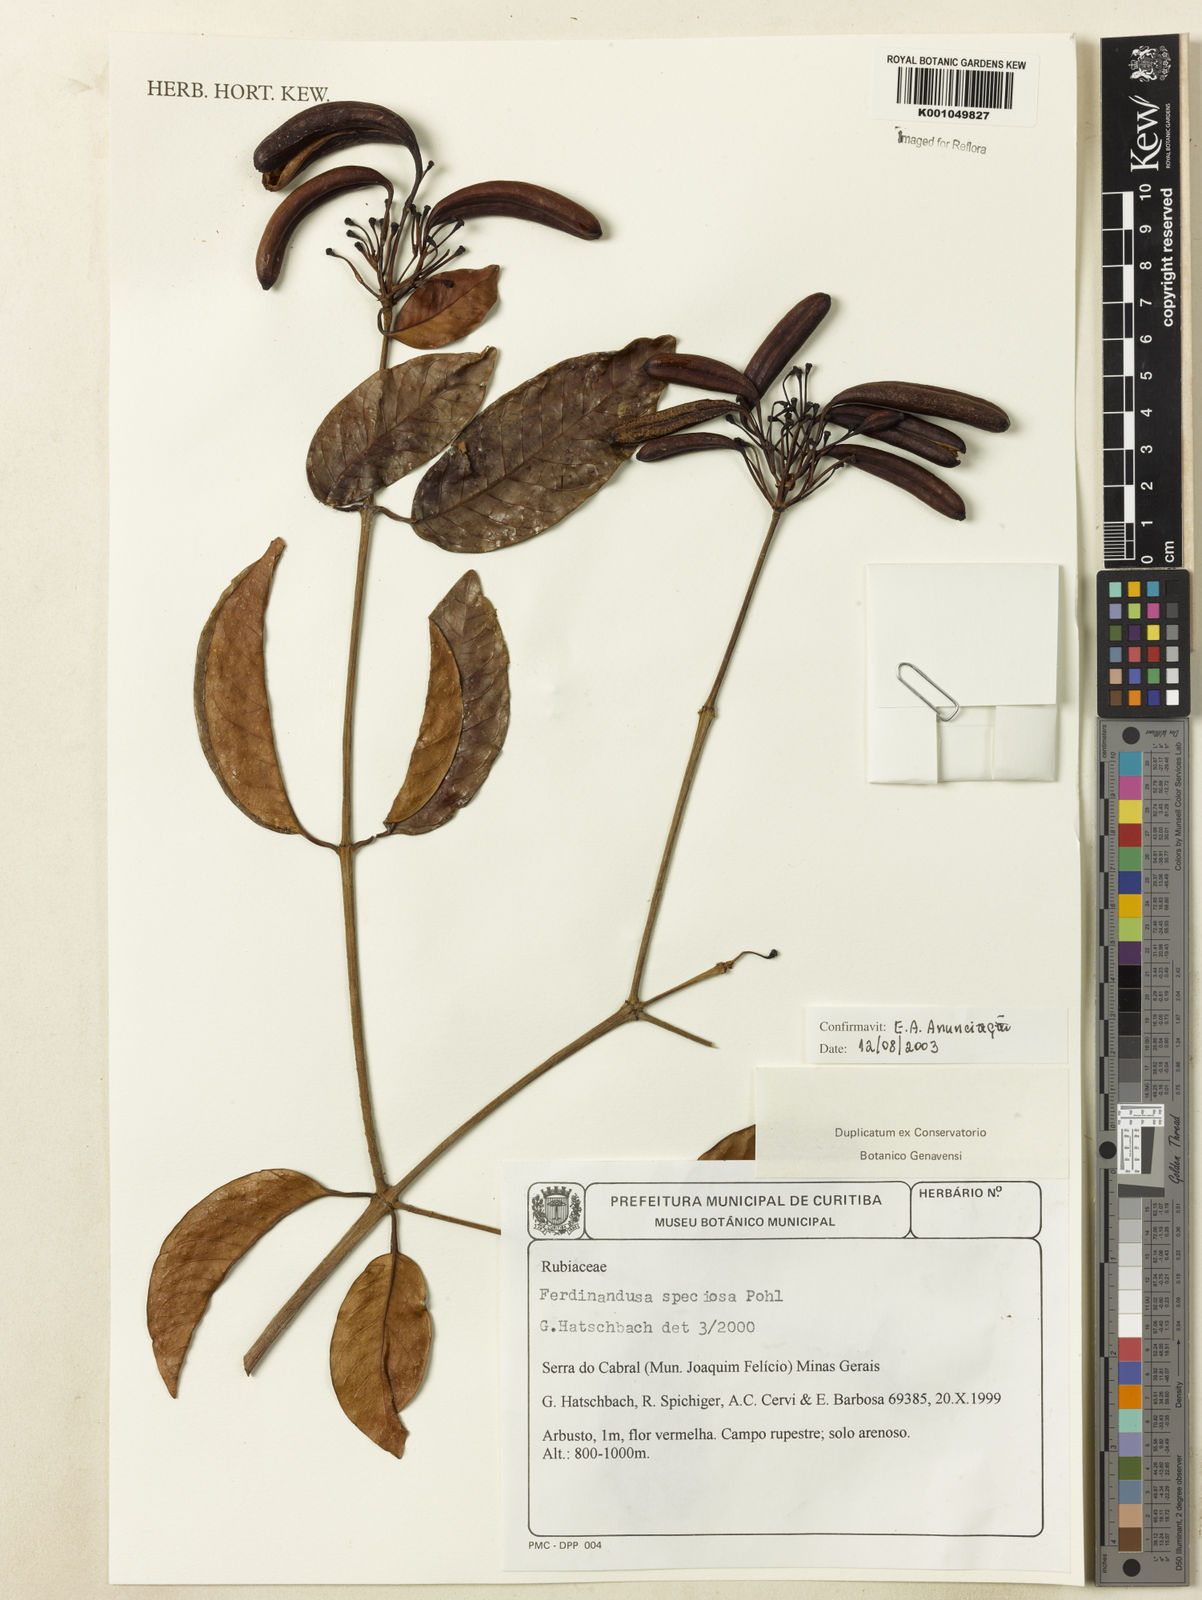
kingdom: Plantae
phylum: Tracheophyta
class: Magnoliopsida
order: Gentianales
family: Rubiaceae
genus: Ferdinandusa
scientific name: Ferdinandusa speciosa
